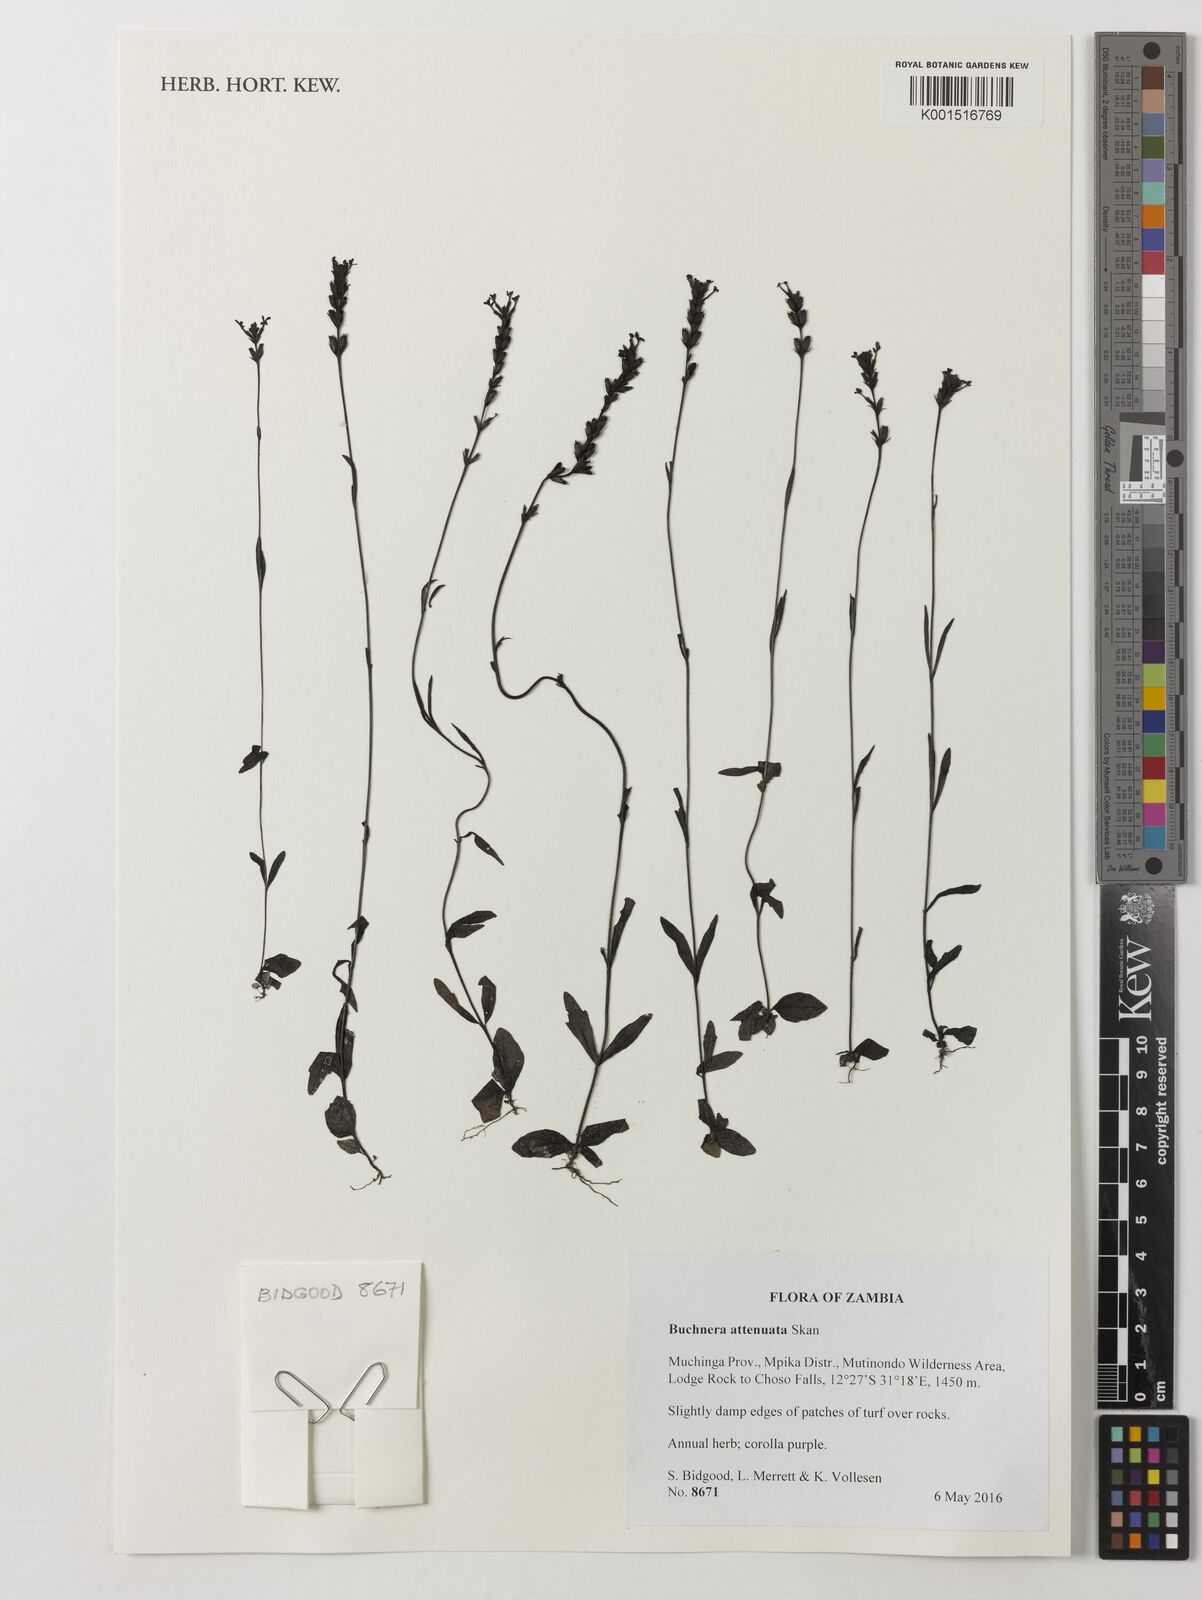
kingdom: Plantae
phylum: Tracheophyta
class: Magnoliopsida
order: Lamiales
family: Orobanchaceae
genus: Buchnera
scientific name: Buchnera attenuata
